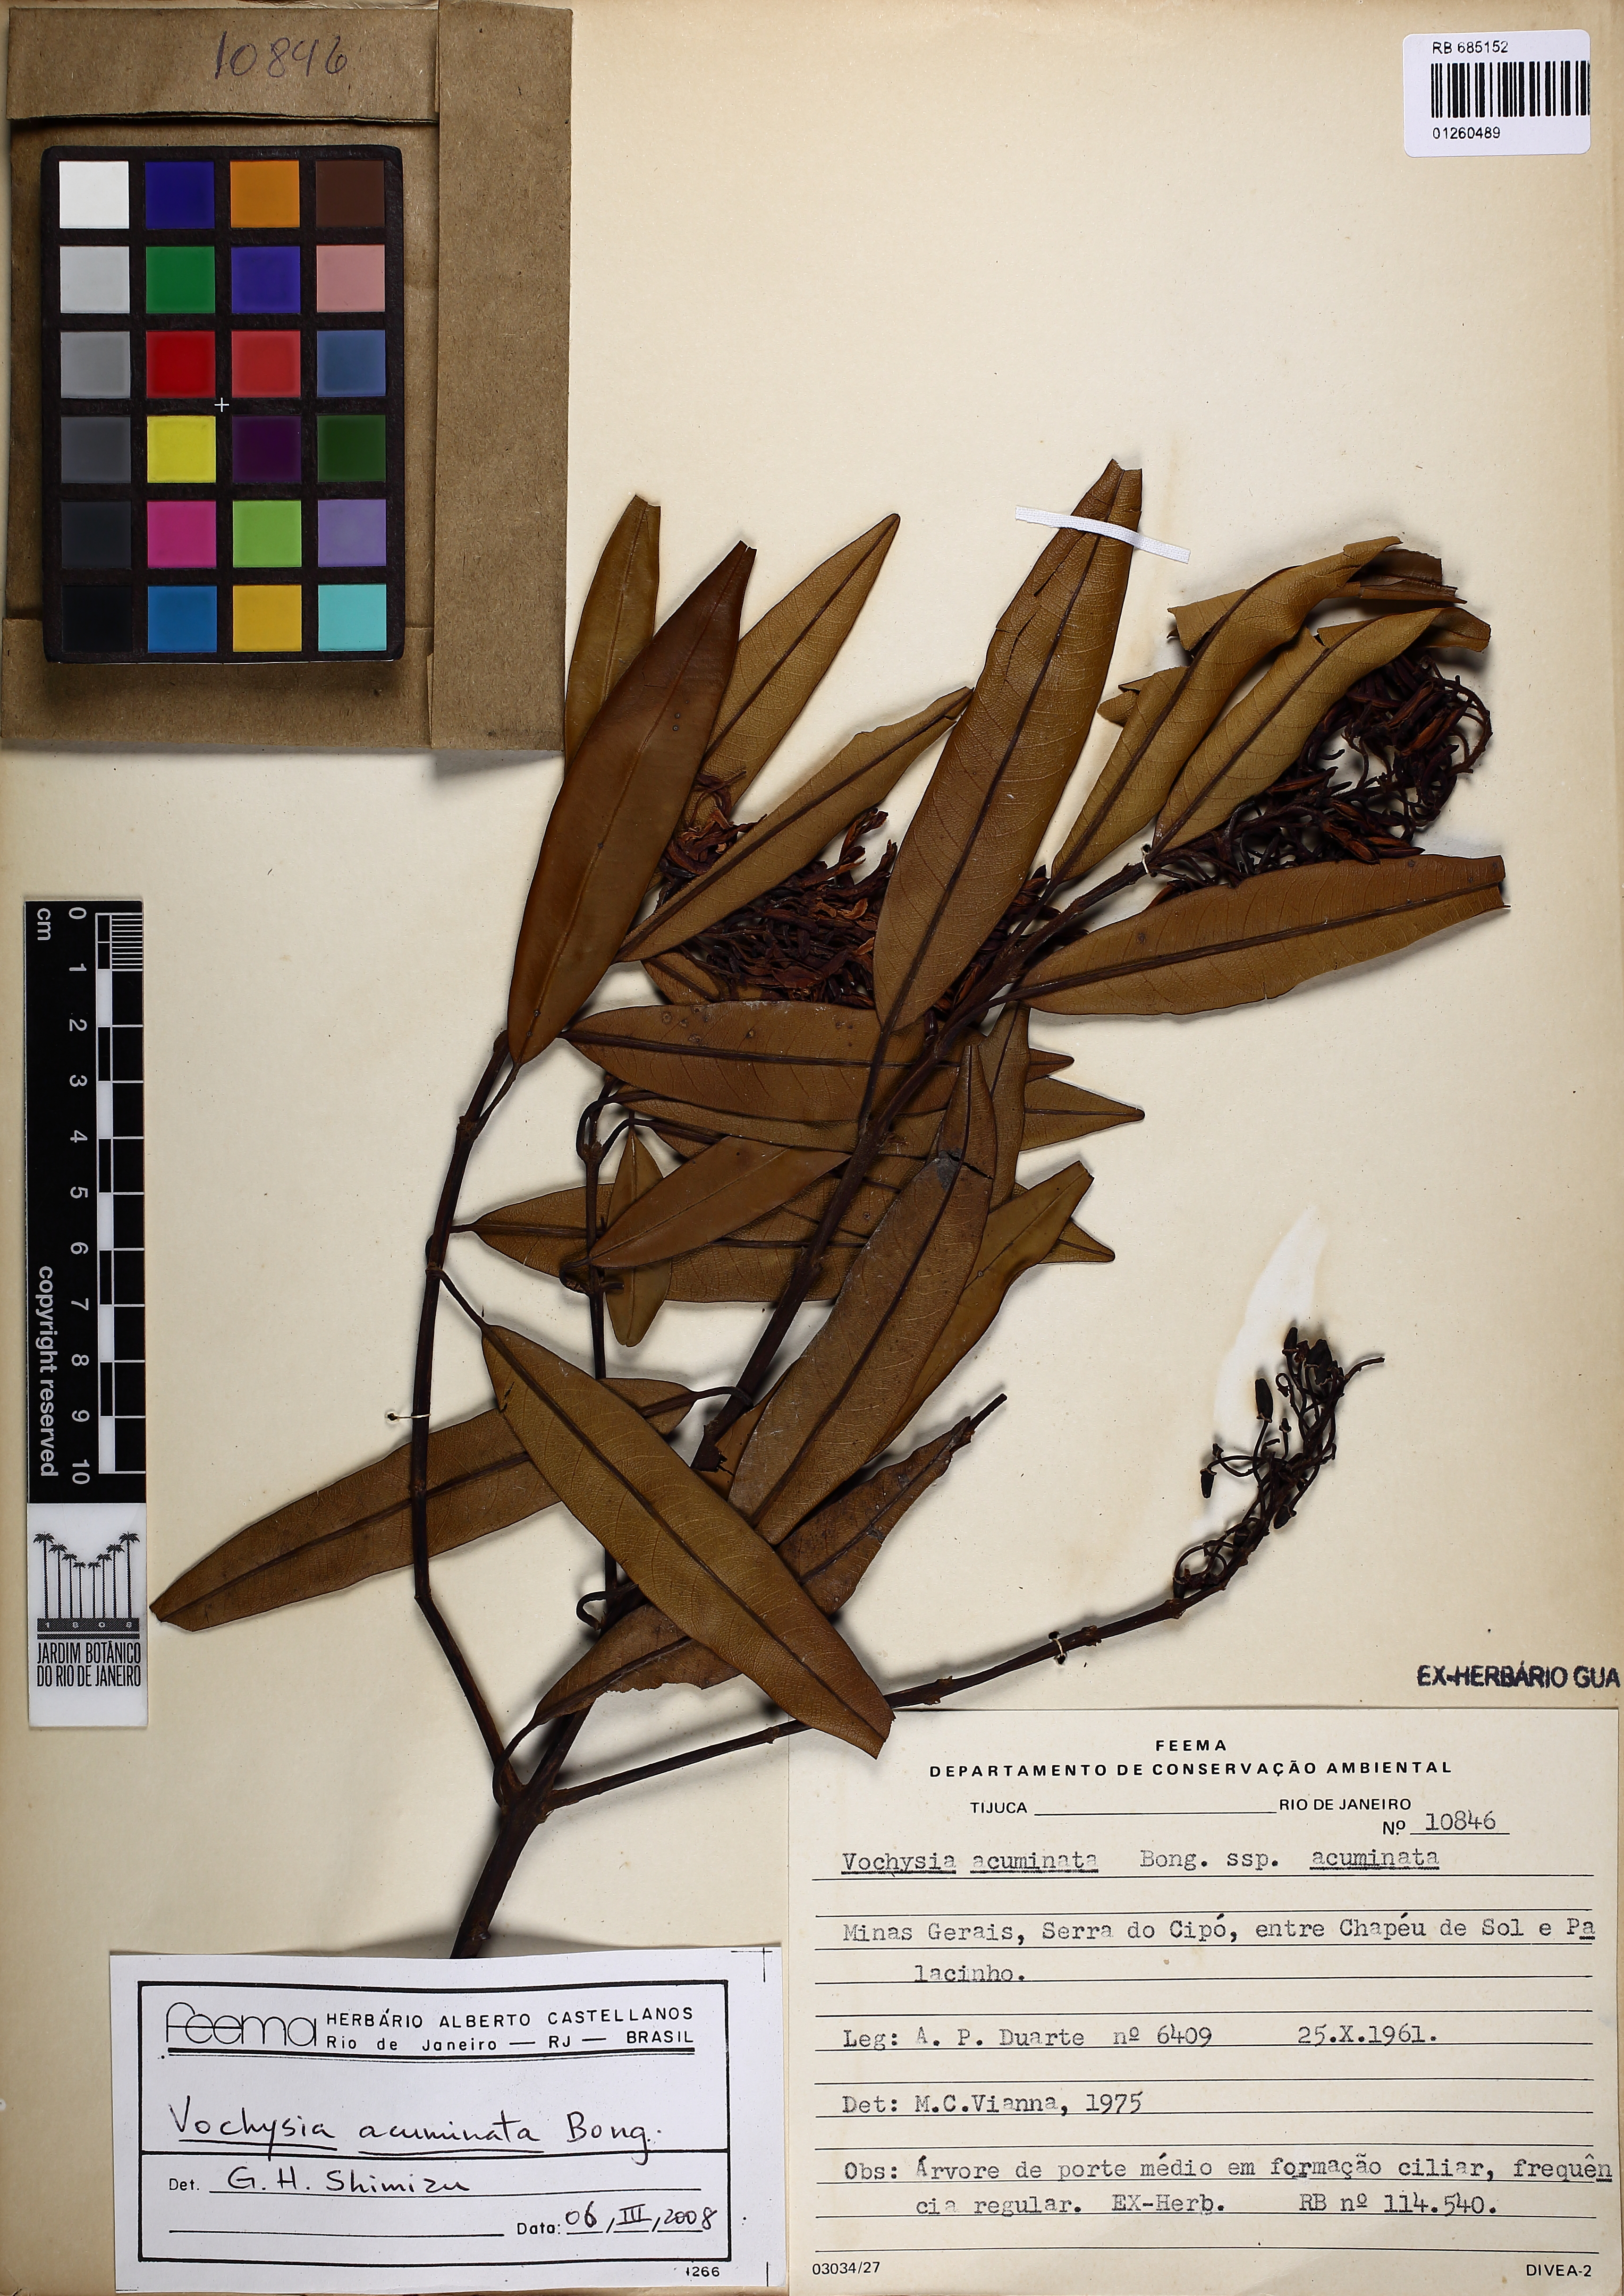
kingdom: Plantae
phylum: Tracheophyta
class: Magnoliopsida
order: Myrtales
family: Vochysiaceae
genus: Vochysia
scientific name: Vochysia acuminata
